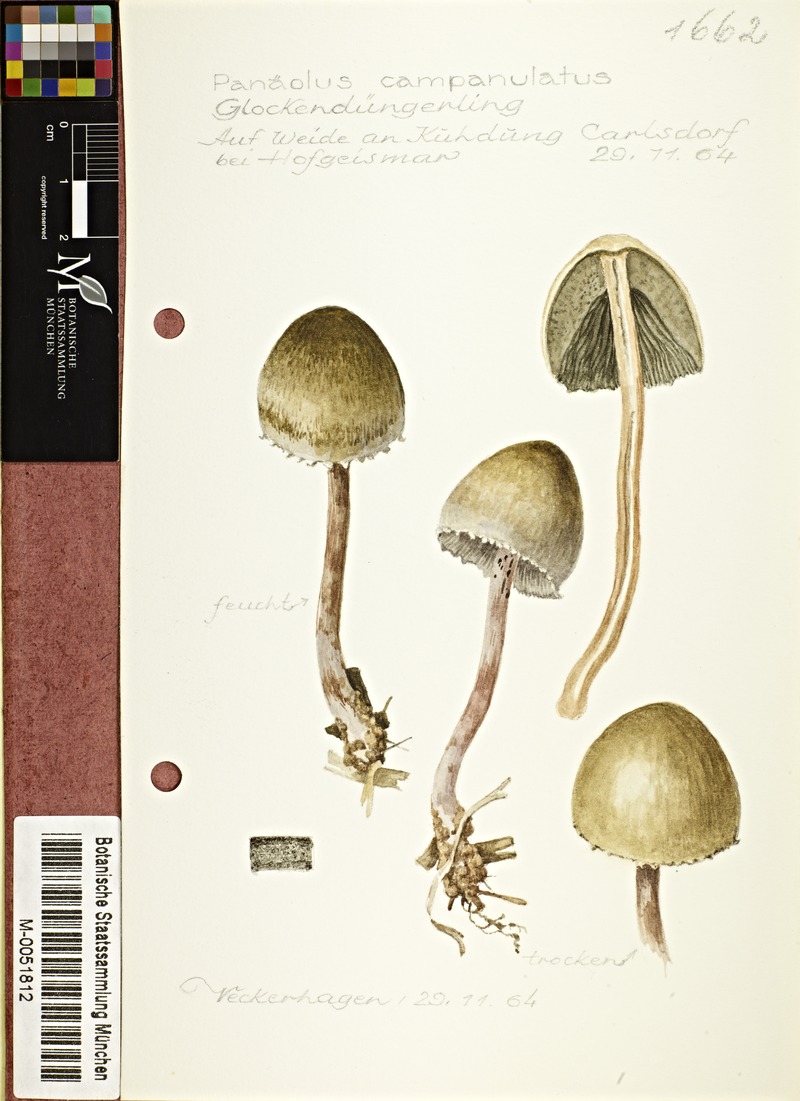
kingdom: Fungi
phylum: Basidiomycota
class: Agaricomycetes
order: Agaricales
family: Bolbitiaceae
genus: Panaeolus
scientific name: Panaeolus papilionaceus
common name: Petticoat mottlegill
